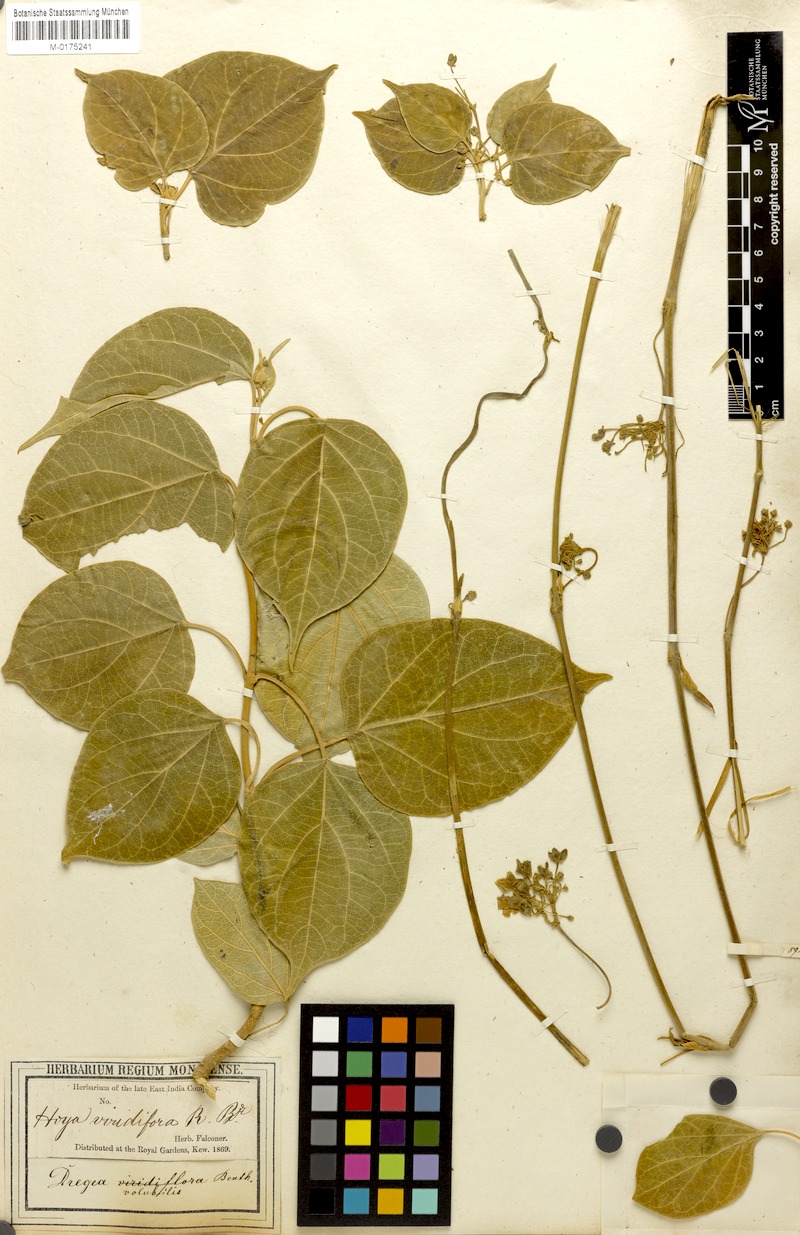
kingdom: Plantae
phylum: Tracheophyta
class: Magnoliopsida
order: Gentianales
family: Apocynaceae
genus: Stephanotis
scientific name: Stephanotis volubilis
